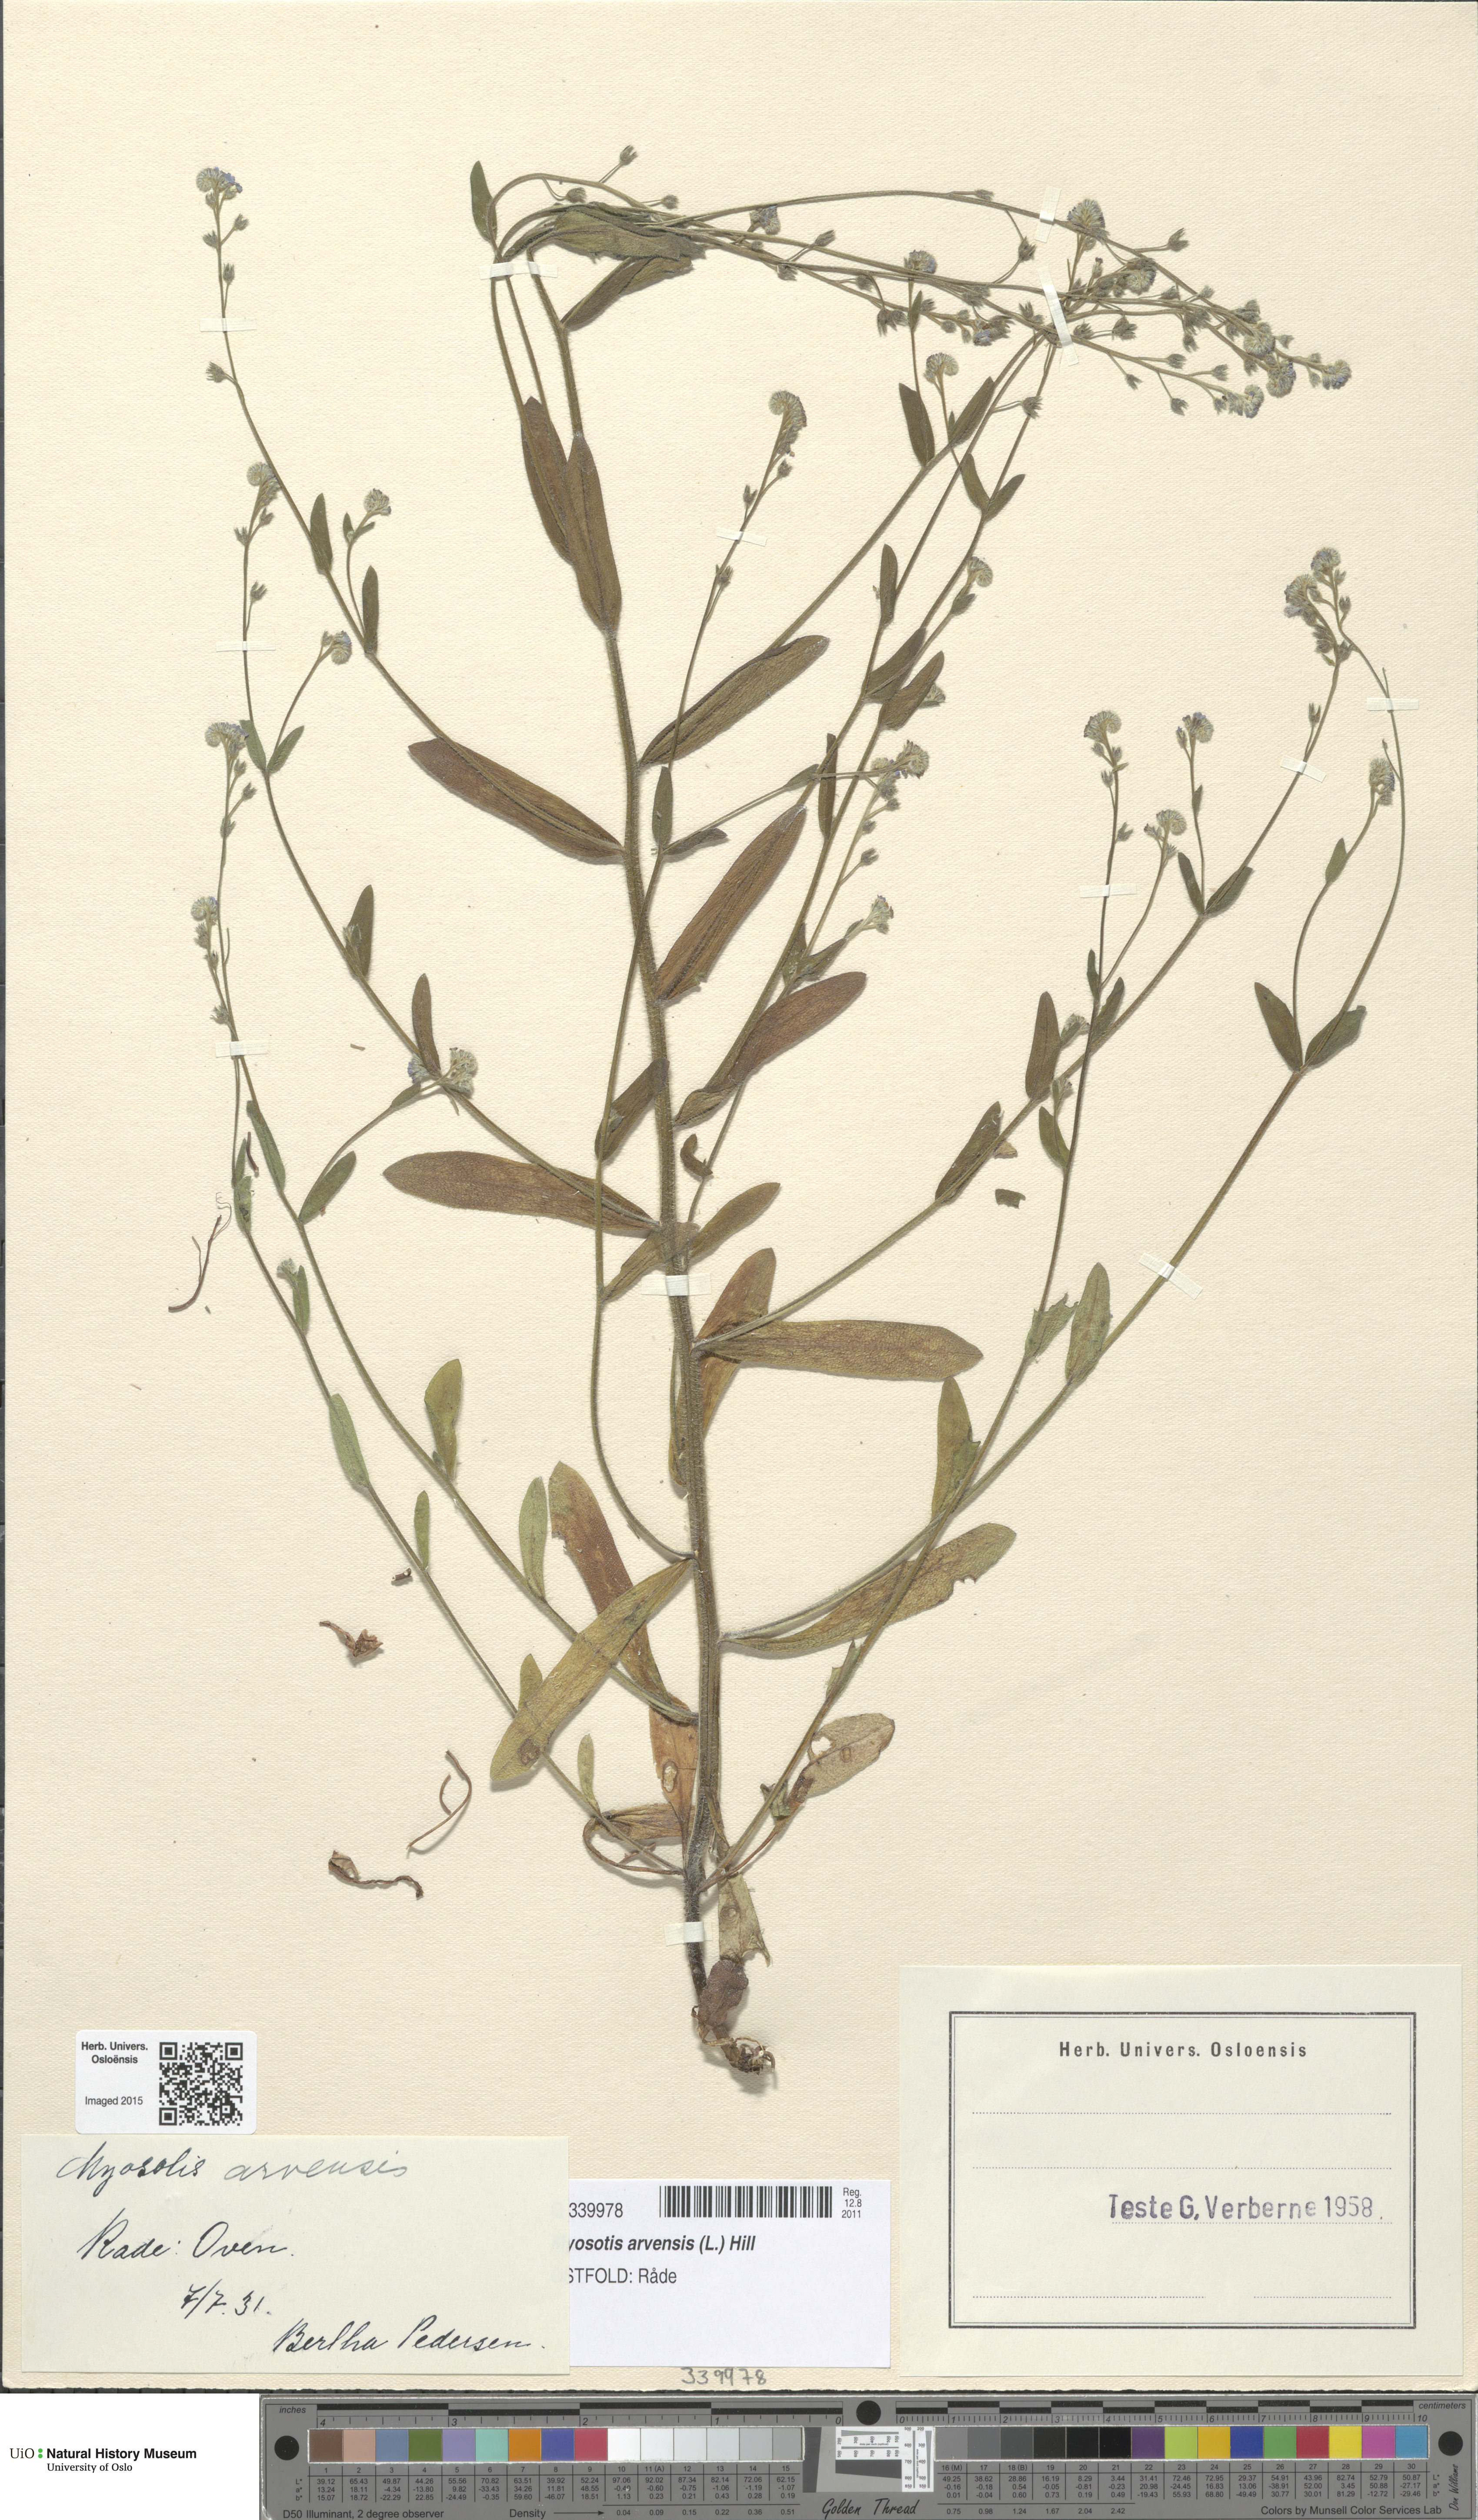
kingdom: Plantae
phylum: Tracheophyta
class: Magnoliopsida
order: Boraginales
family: Boraginaceae
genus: Myosotis
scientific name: Myosotis arvensis
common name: Field forget-me-not
